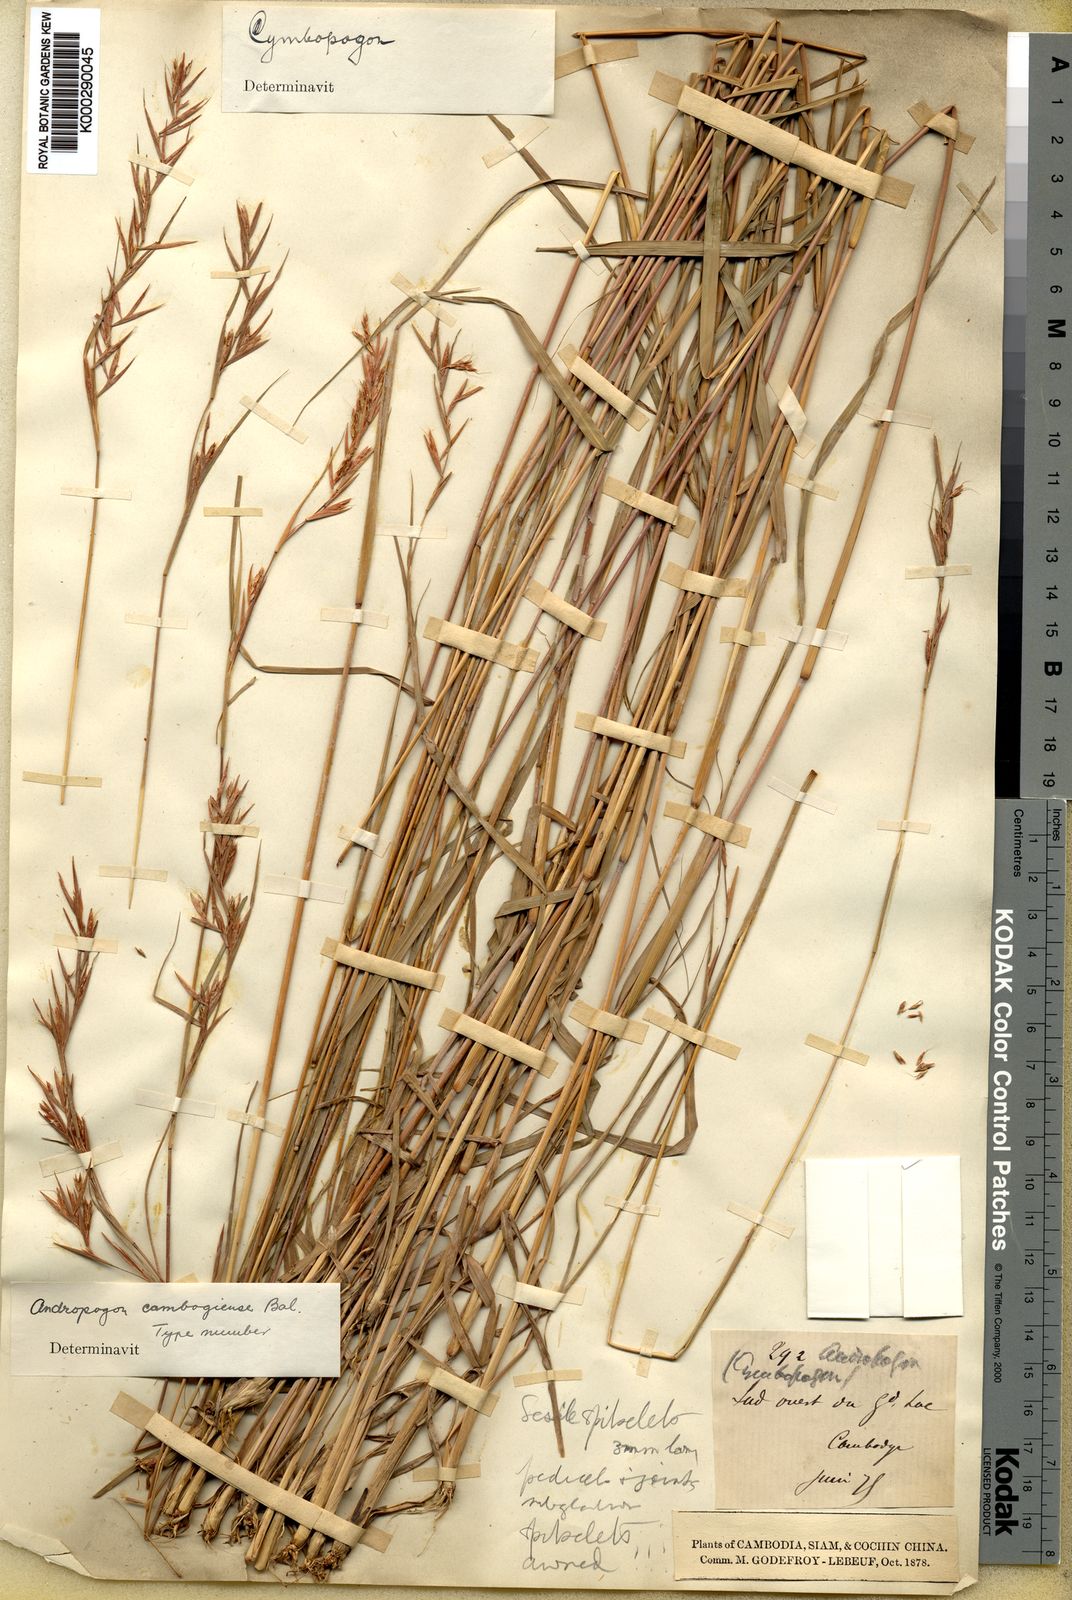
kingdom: Plantae
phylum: Tracheophyta
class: Liliopsida
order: Poales
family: Poaceae
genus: Cymbopogon
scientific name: Cymbopogon cambogiensis
